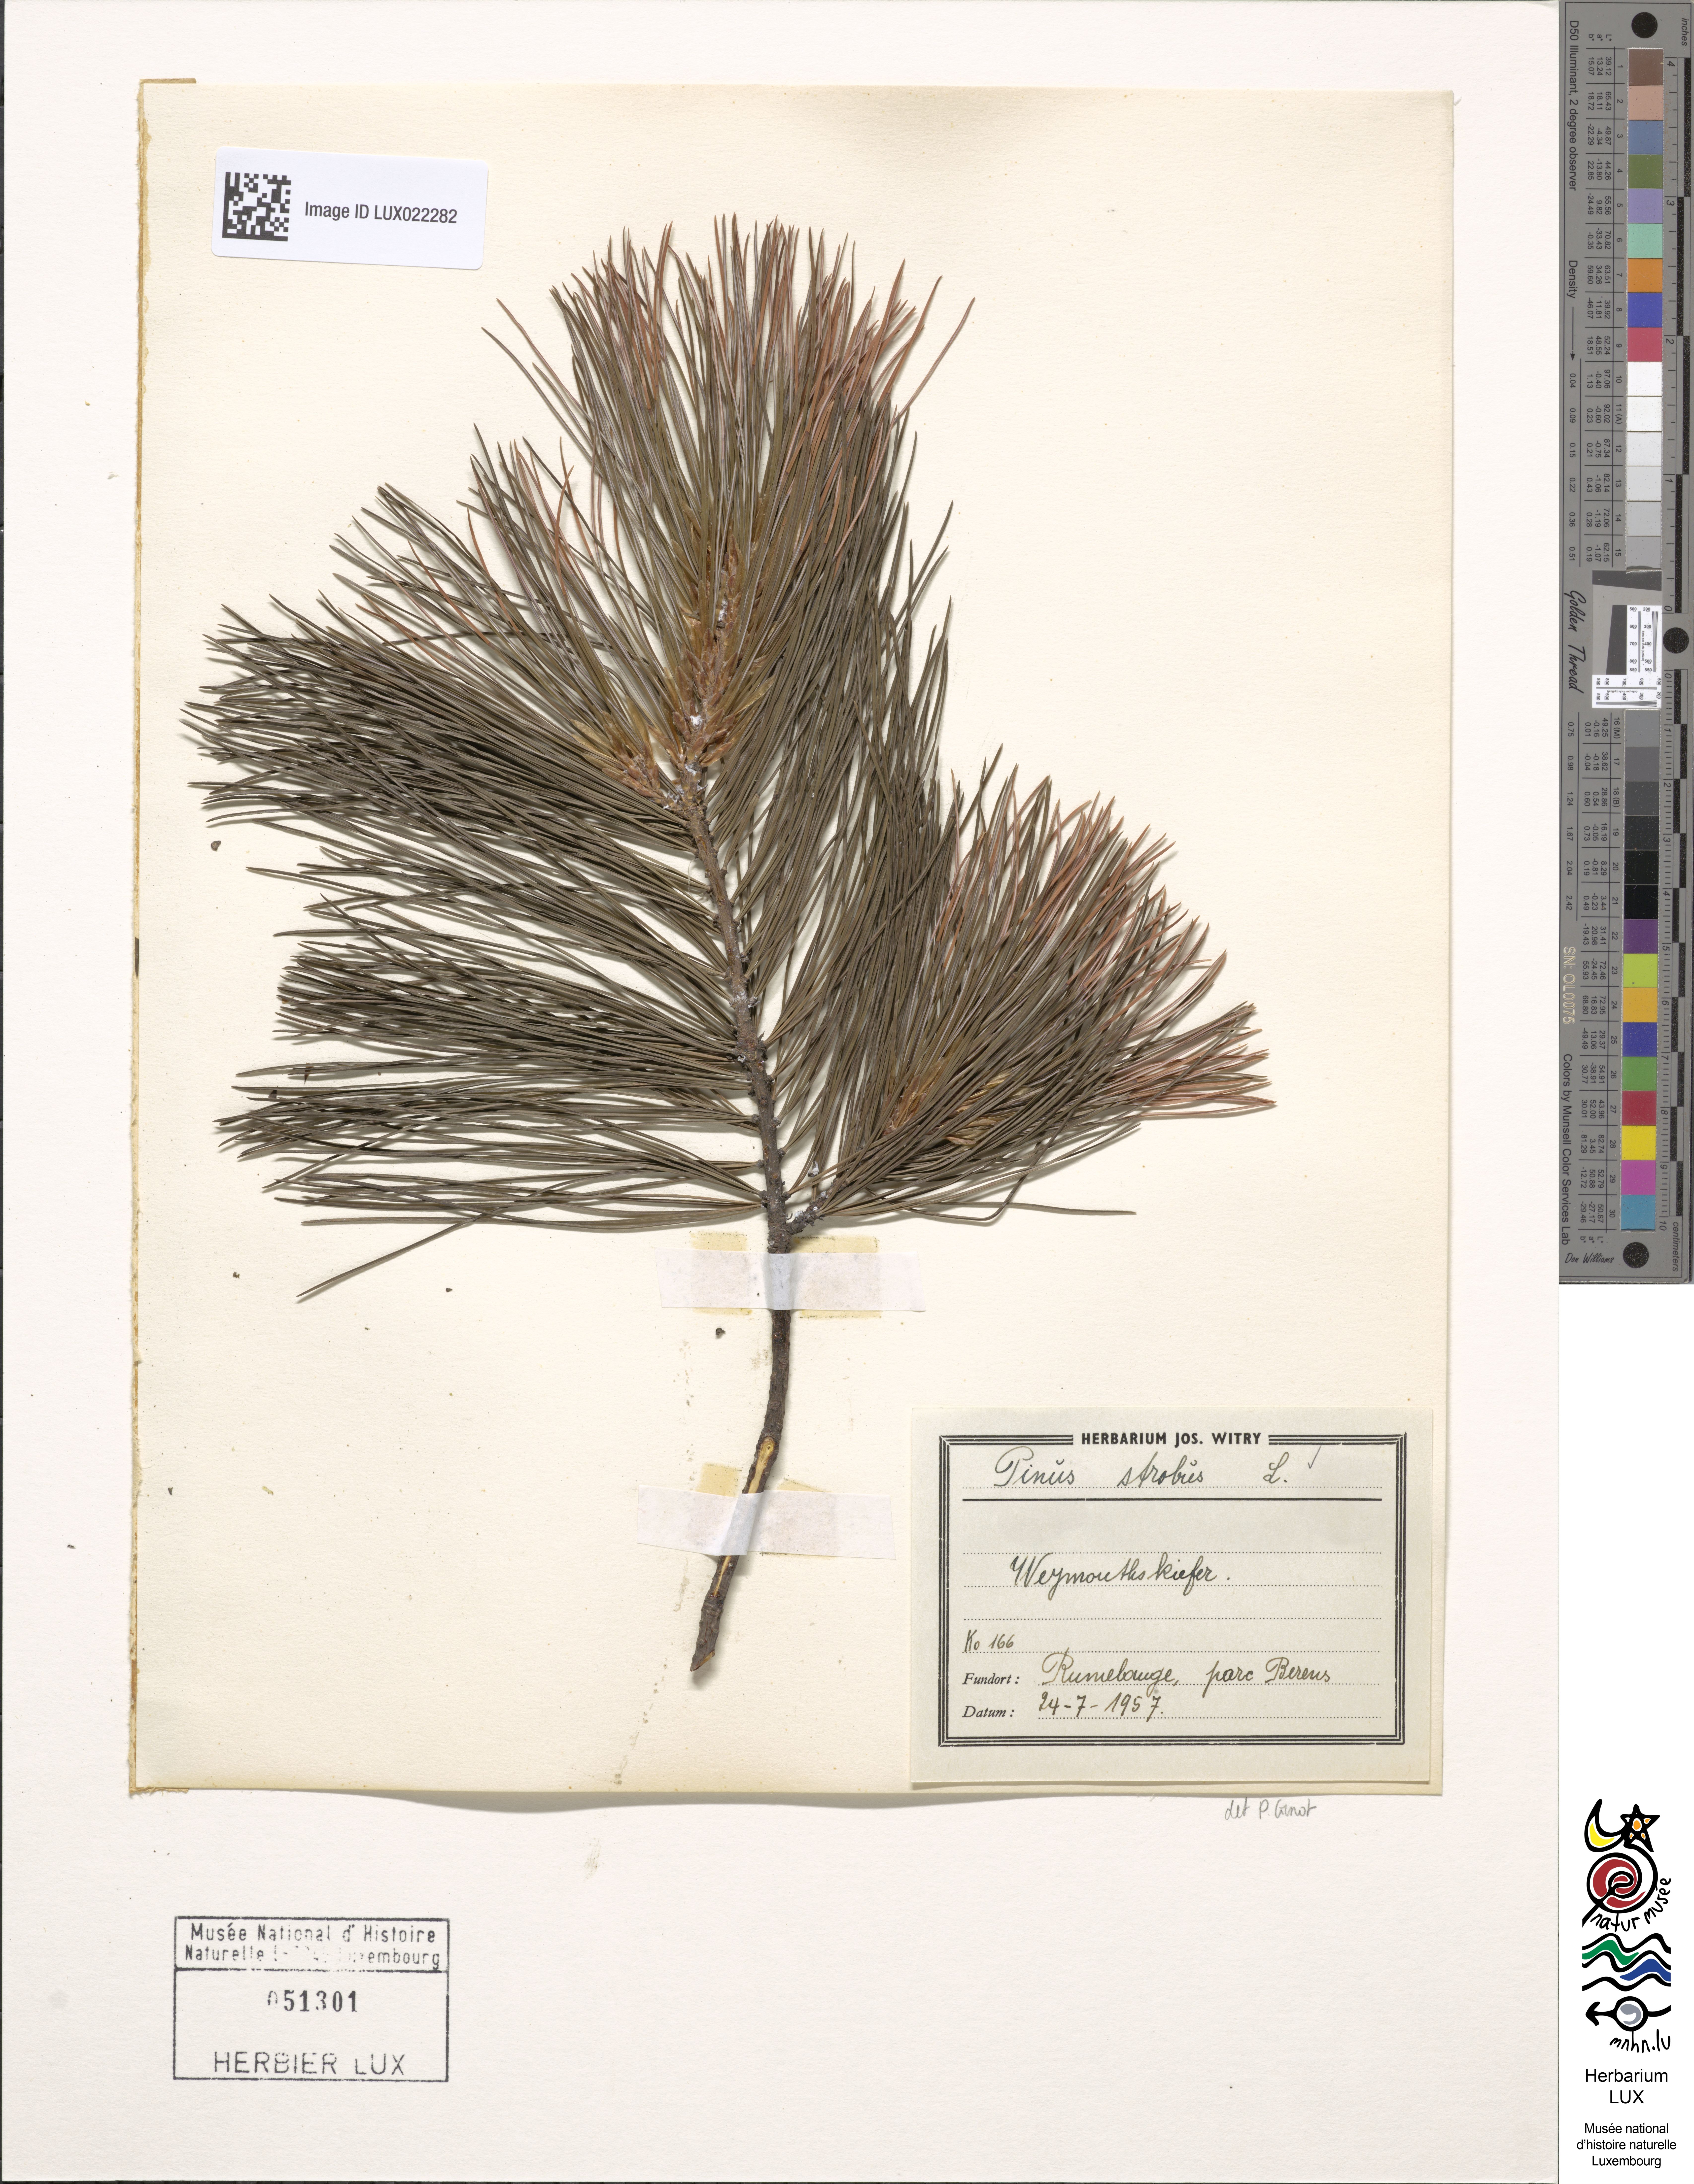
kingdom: Plantae
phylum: Tracheophyta
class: Pinopsida
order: Pinales
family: Pinaceae
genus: Pinus
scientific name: Pinus strobus
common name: Weymouth pine
